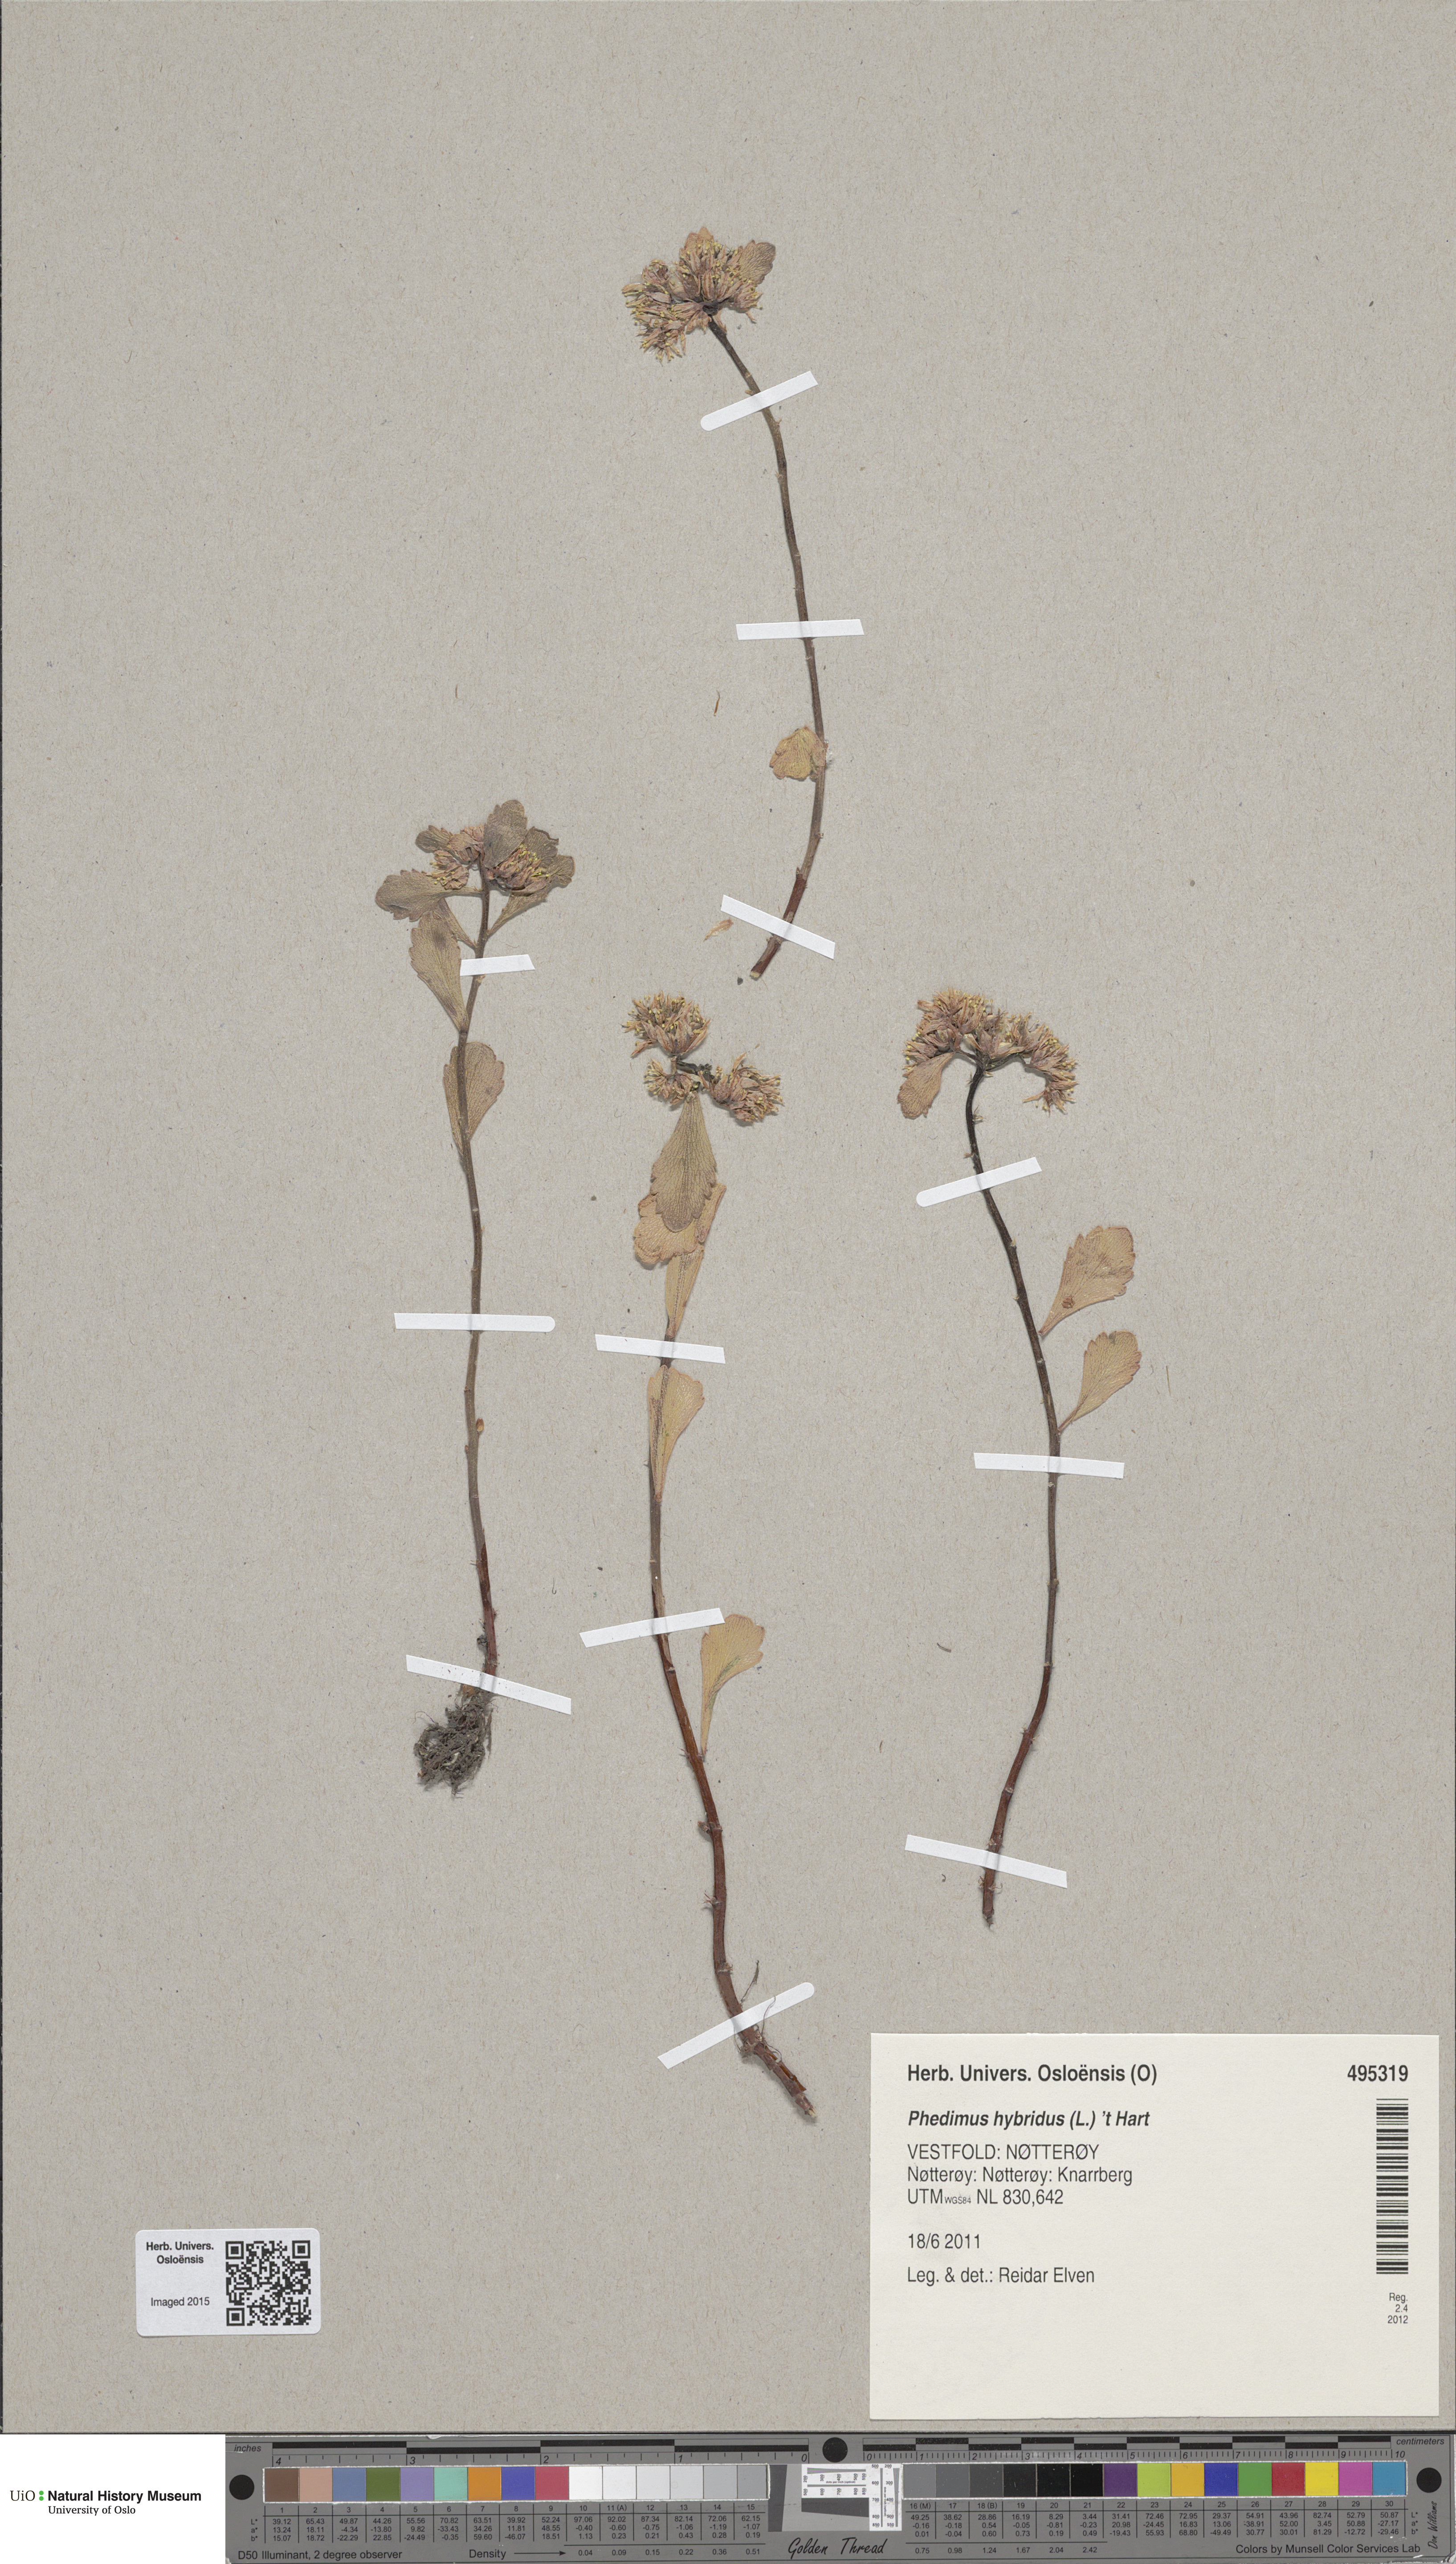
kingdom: Plantae
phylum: Tracheophyta
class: Magnoliopsida
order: Saxifragales
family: Crassulaceae
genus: Phedimus
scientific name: Phedimus hybridus
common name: Hybrid stonecrop
